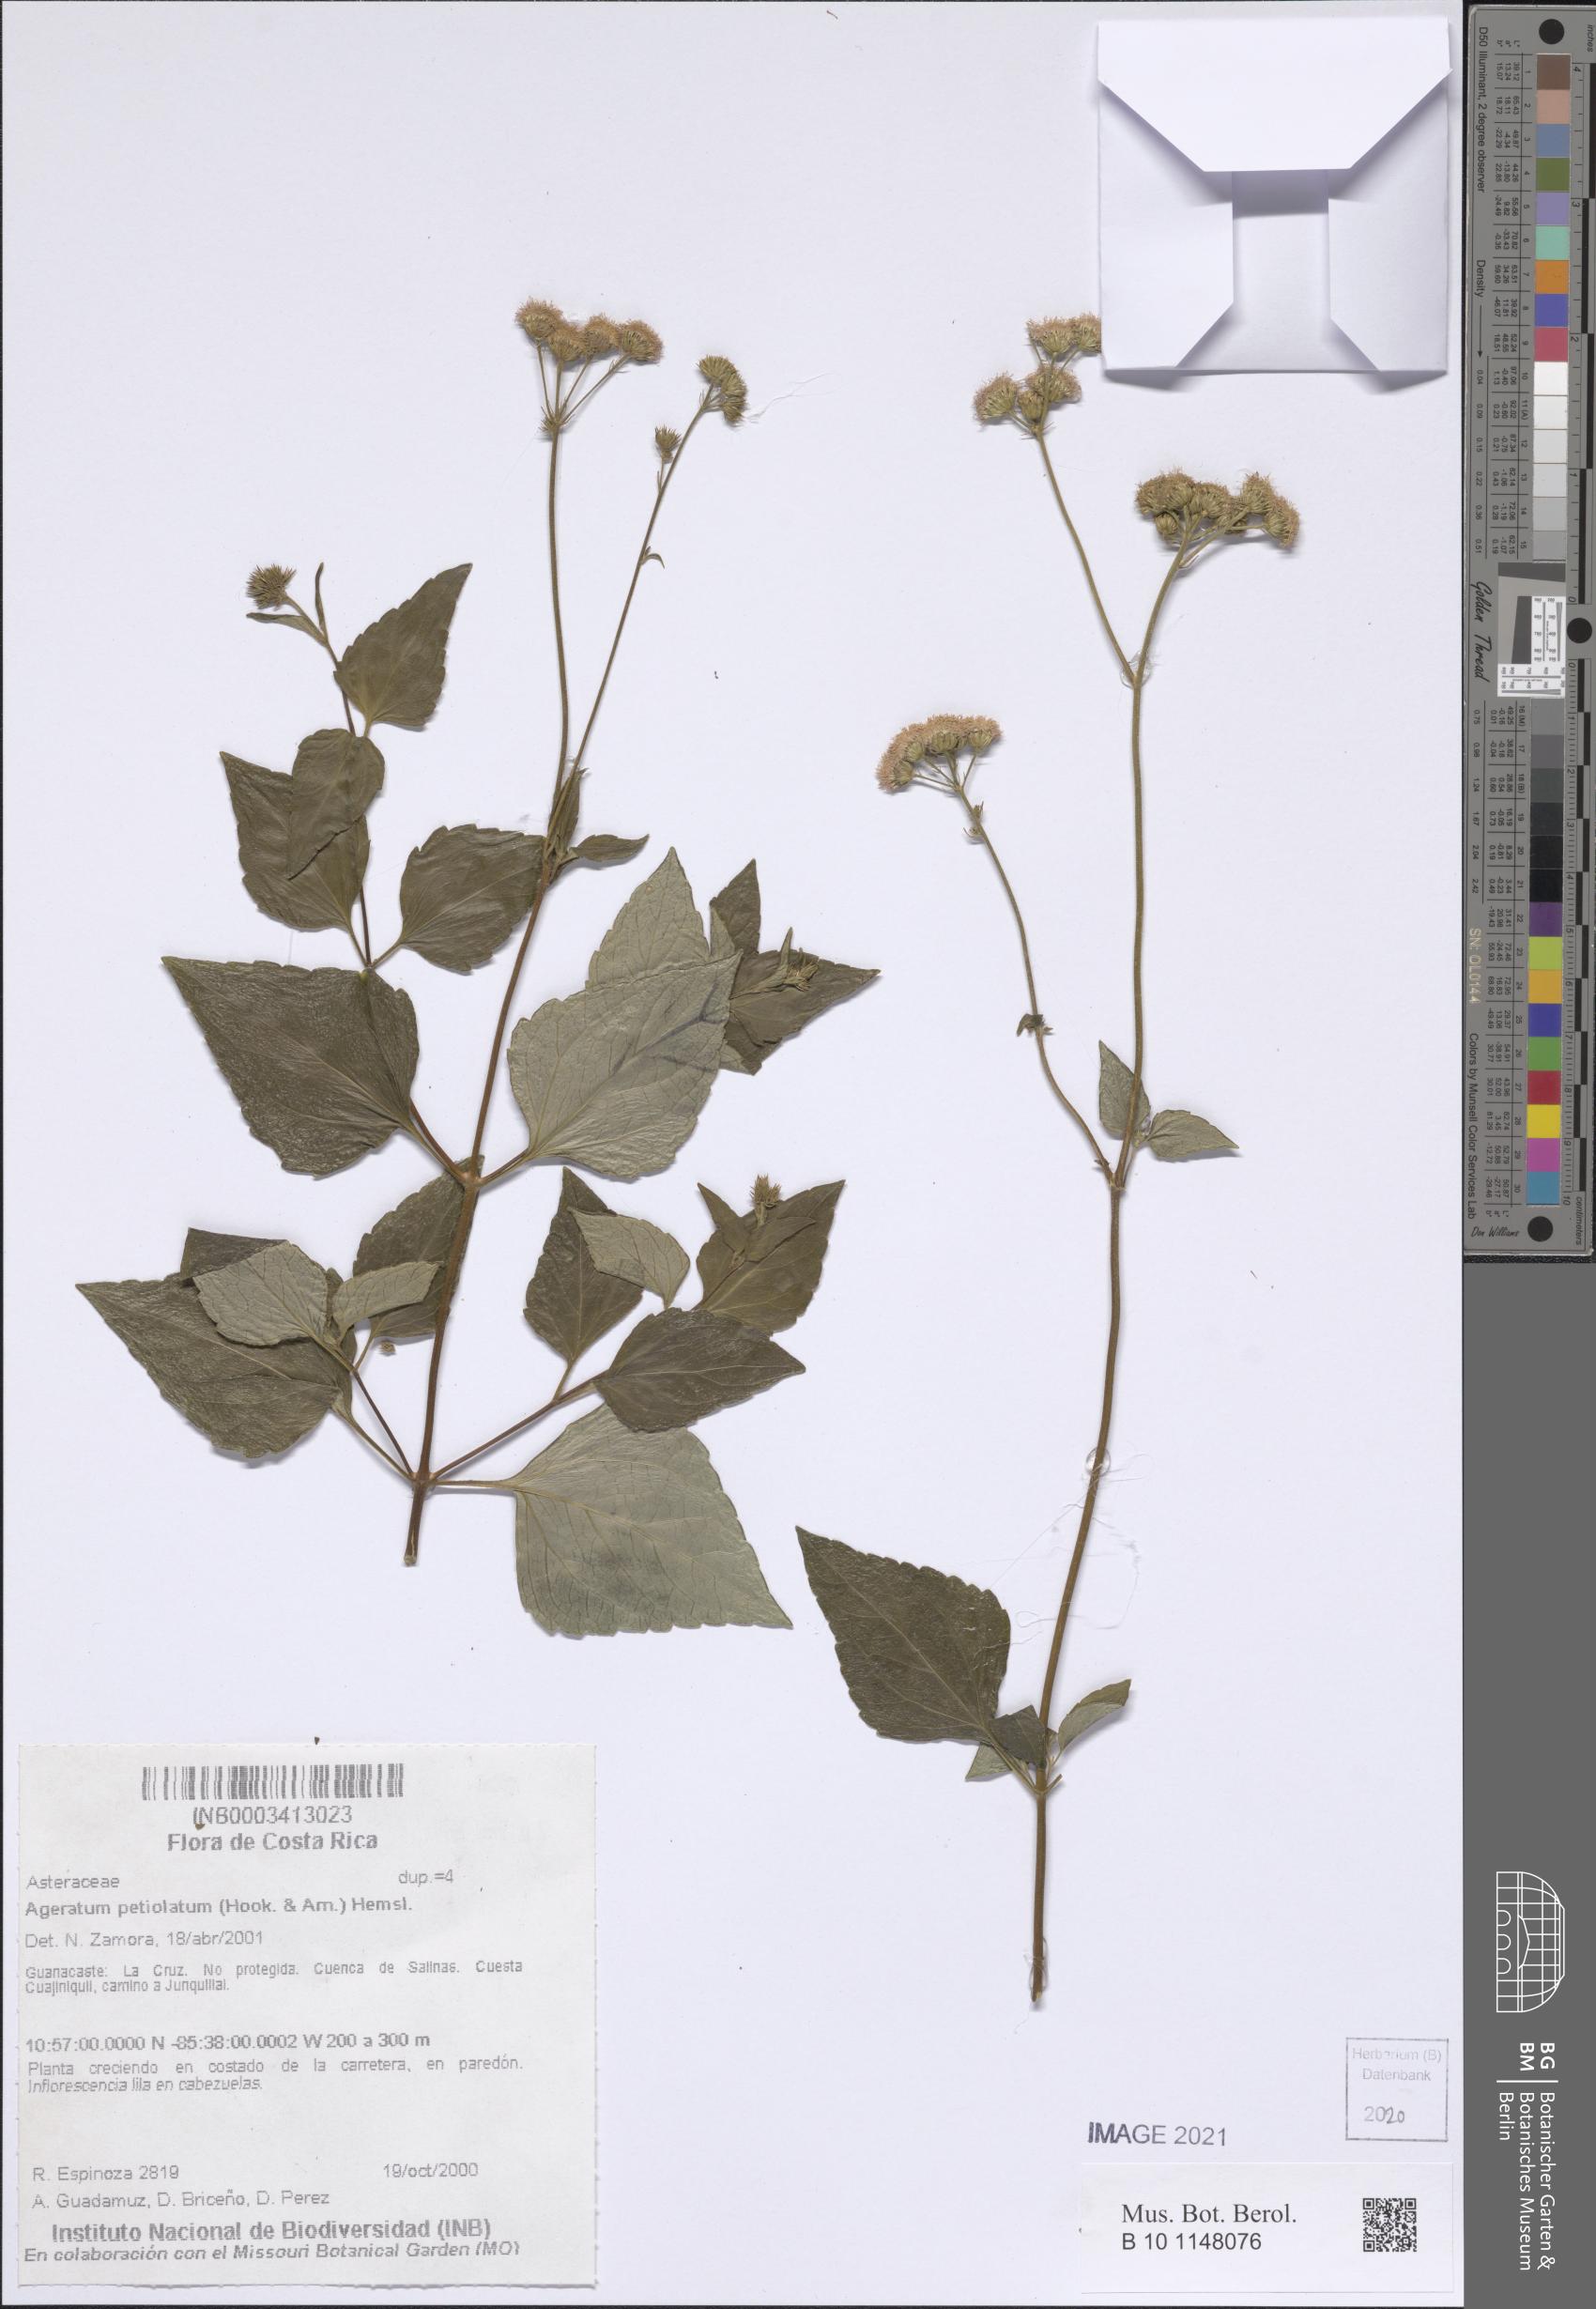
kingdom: Plantae
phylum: Tracheophyta
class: Magnoliopsida
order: Asterales
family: Asteraceae
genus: Ageratum
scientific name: Ageratum petiolatum
